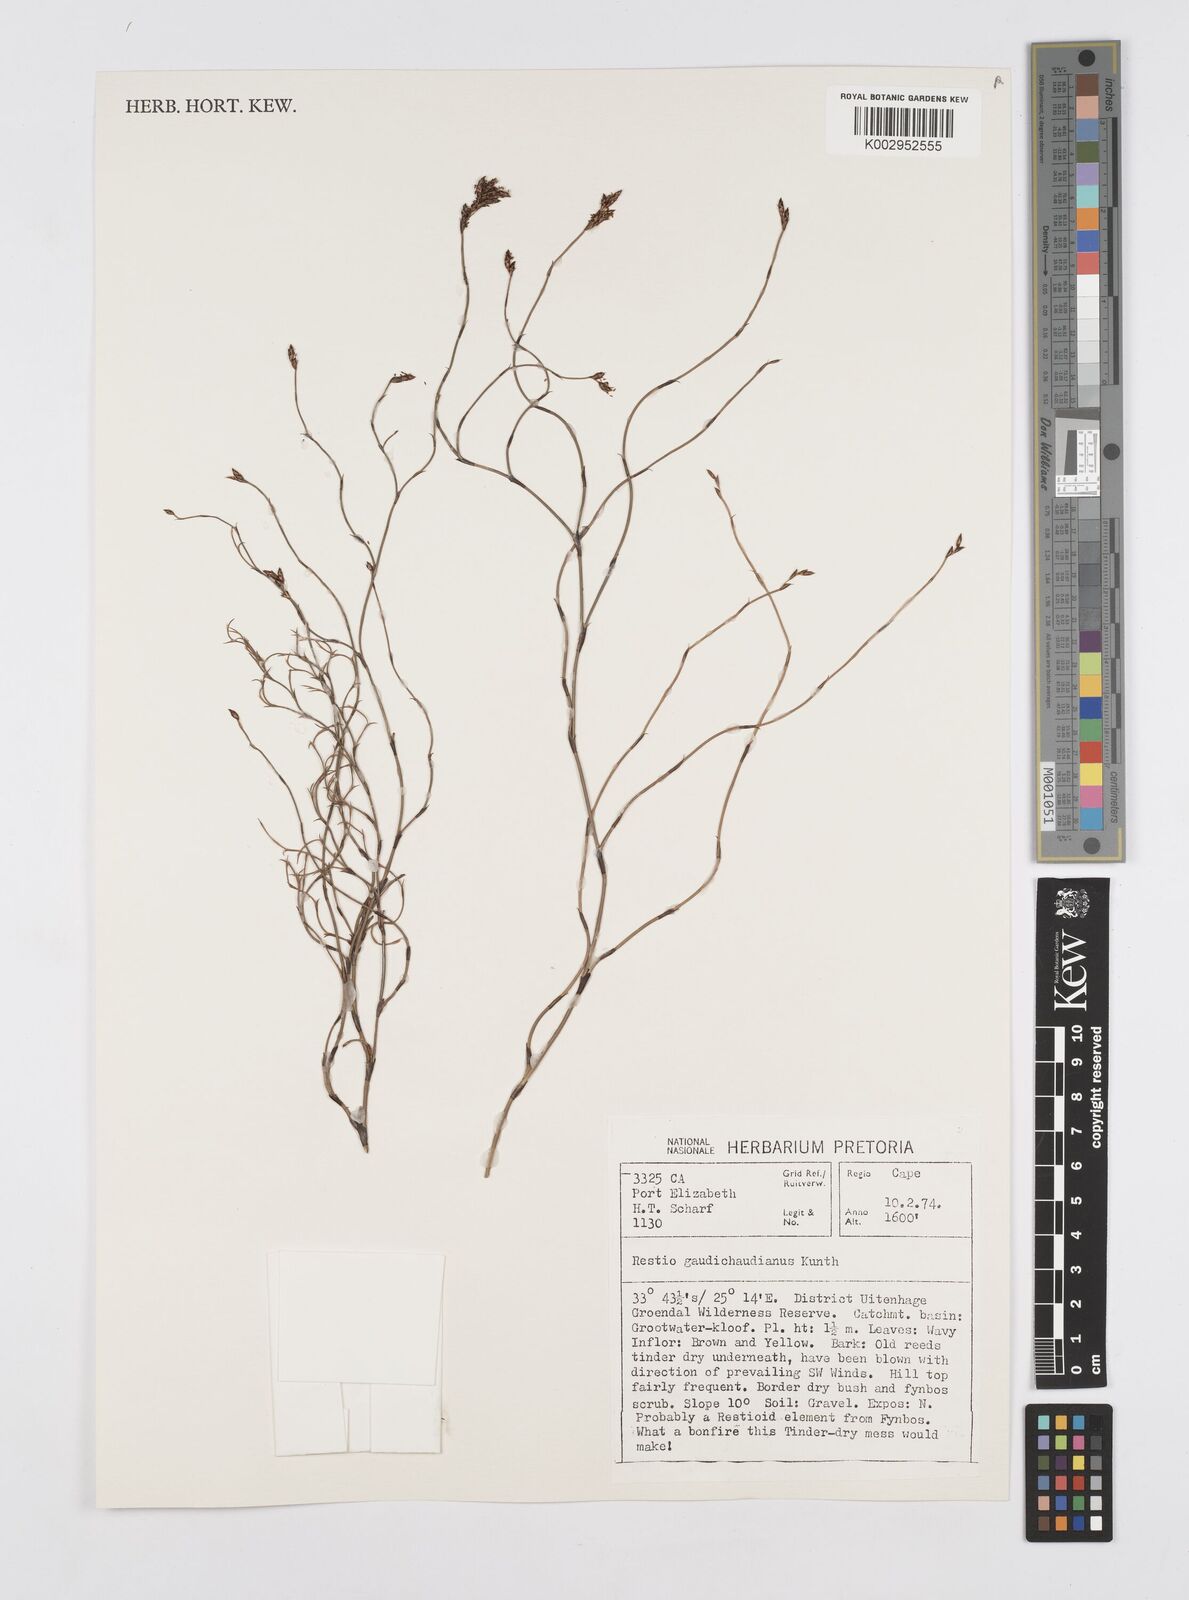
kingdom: Plantae
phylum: Tracheophyta
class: Liliopsida
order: Poales
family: Restionaceae
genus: Restio
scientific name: Restio gaudichaudianus
